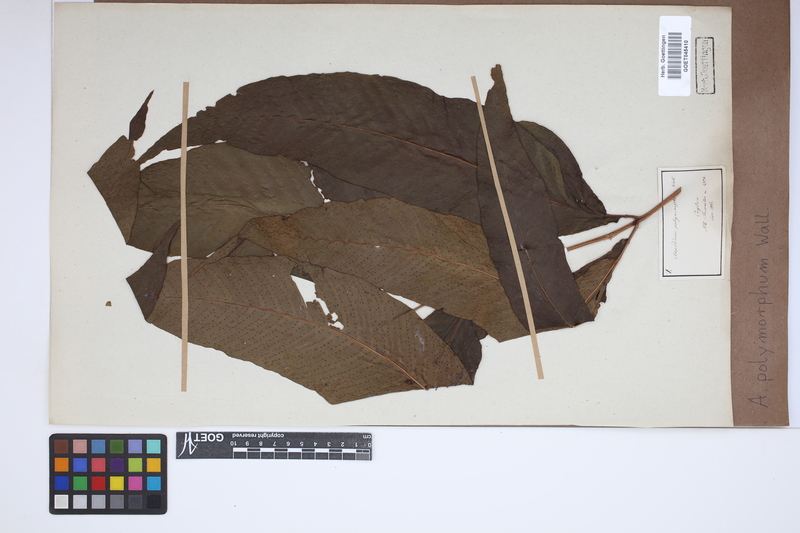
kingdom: Plantae
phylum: Tracheophyta
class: Polypodiopsida
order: Polypodiales
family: Tectariaceae
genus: Tectaria
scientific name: Tectaria polymorpha
